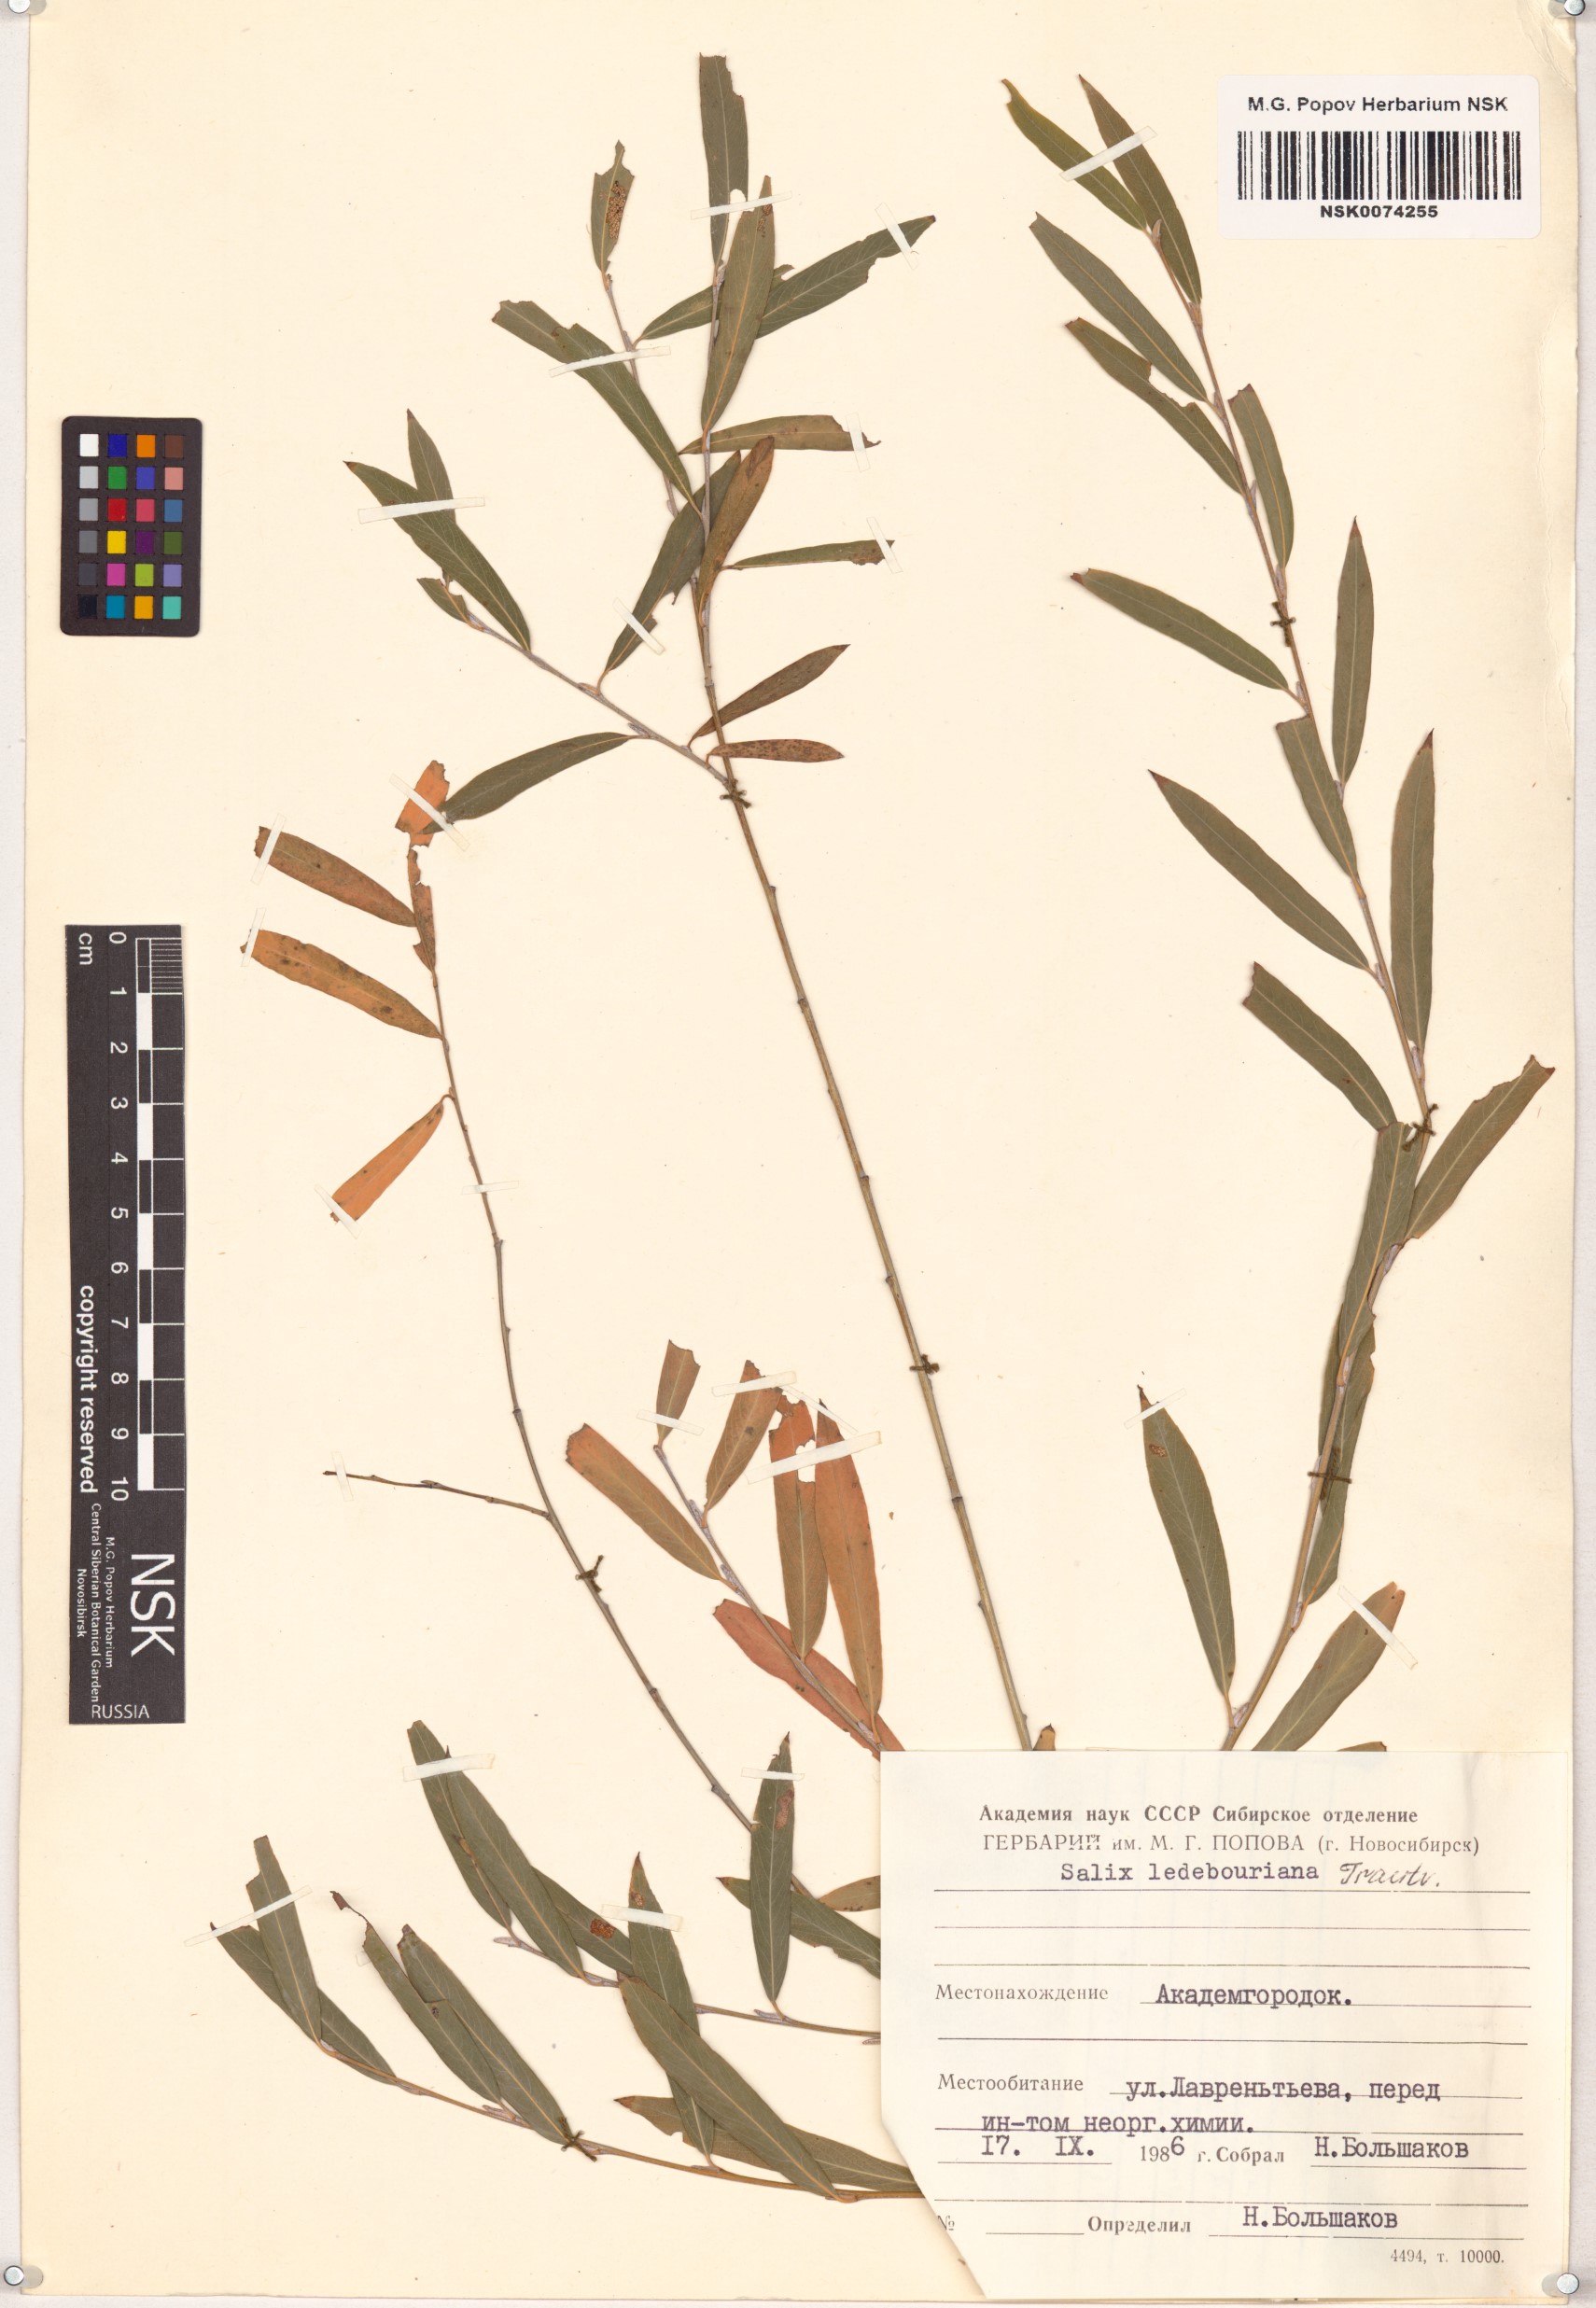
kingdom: Plantae
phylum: Tracheophyta
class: Magnoliopsida
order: Malpighiales
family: Salicaceae
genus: Salix
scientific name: Salix ledebouriana
